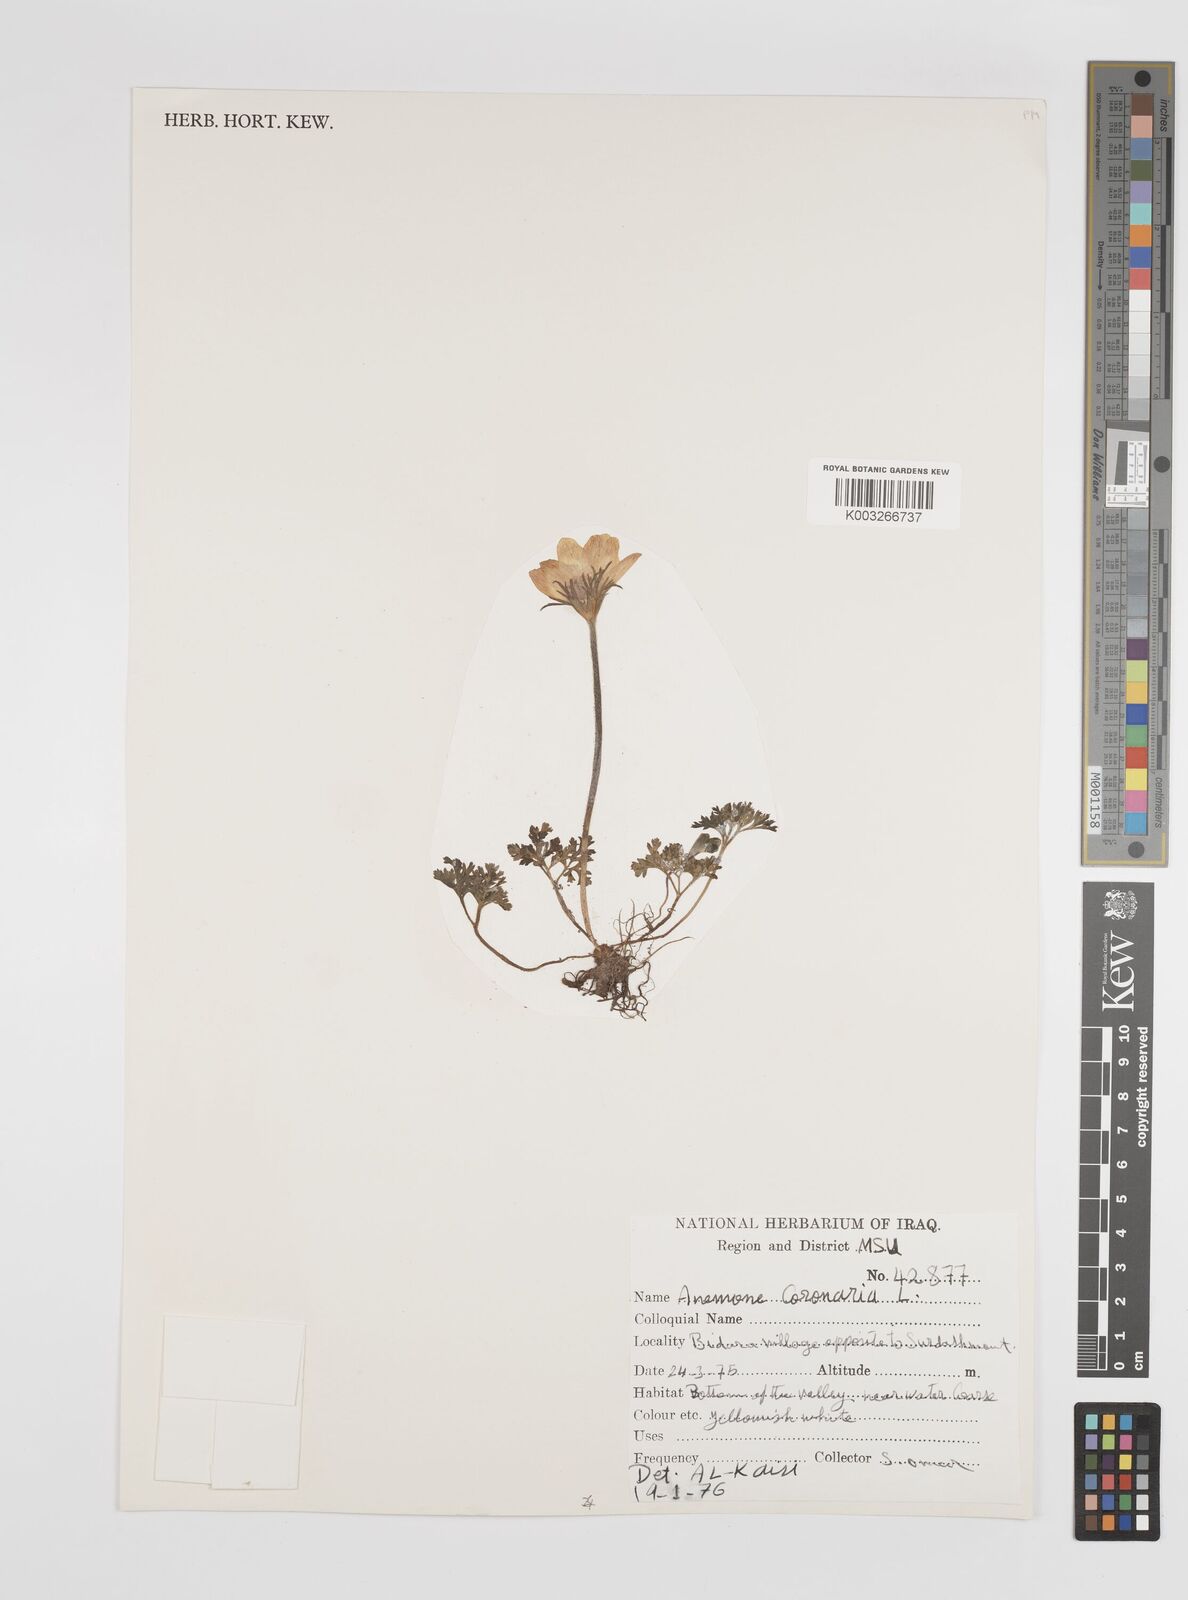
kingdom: Plantae
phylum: Tracheophyta
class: Magnoliopsida
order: Ranunculales
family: Ranunculaceae
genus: Anemone
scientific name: Anemone coronaria
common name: Poppy anemone
